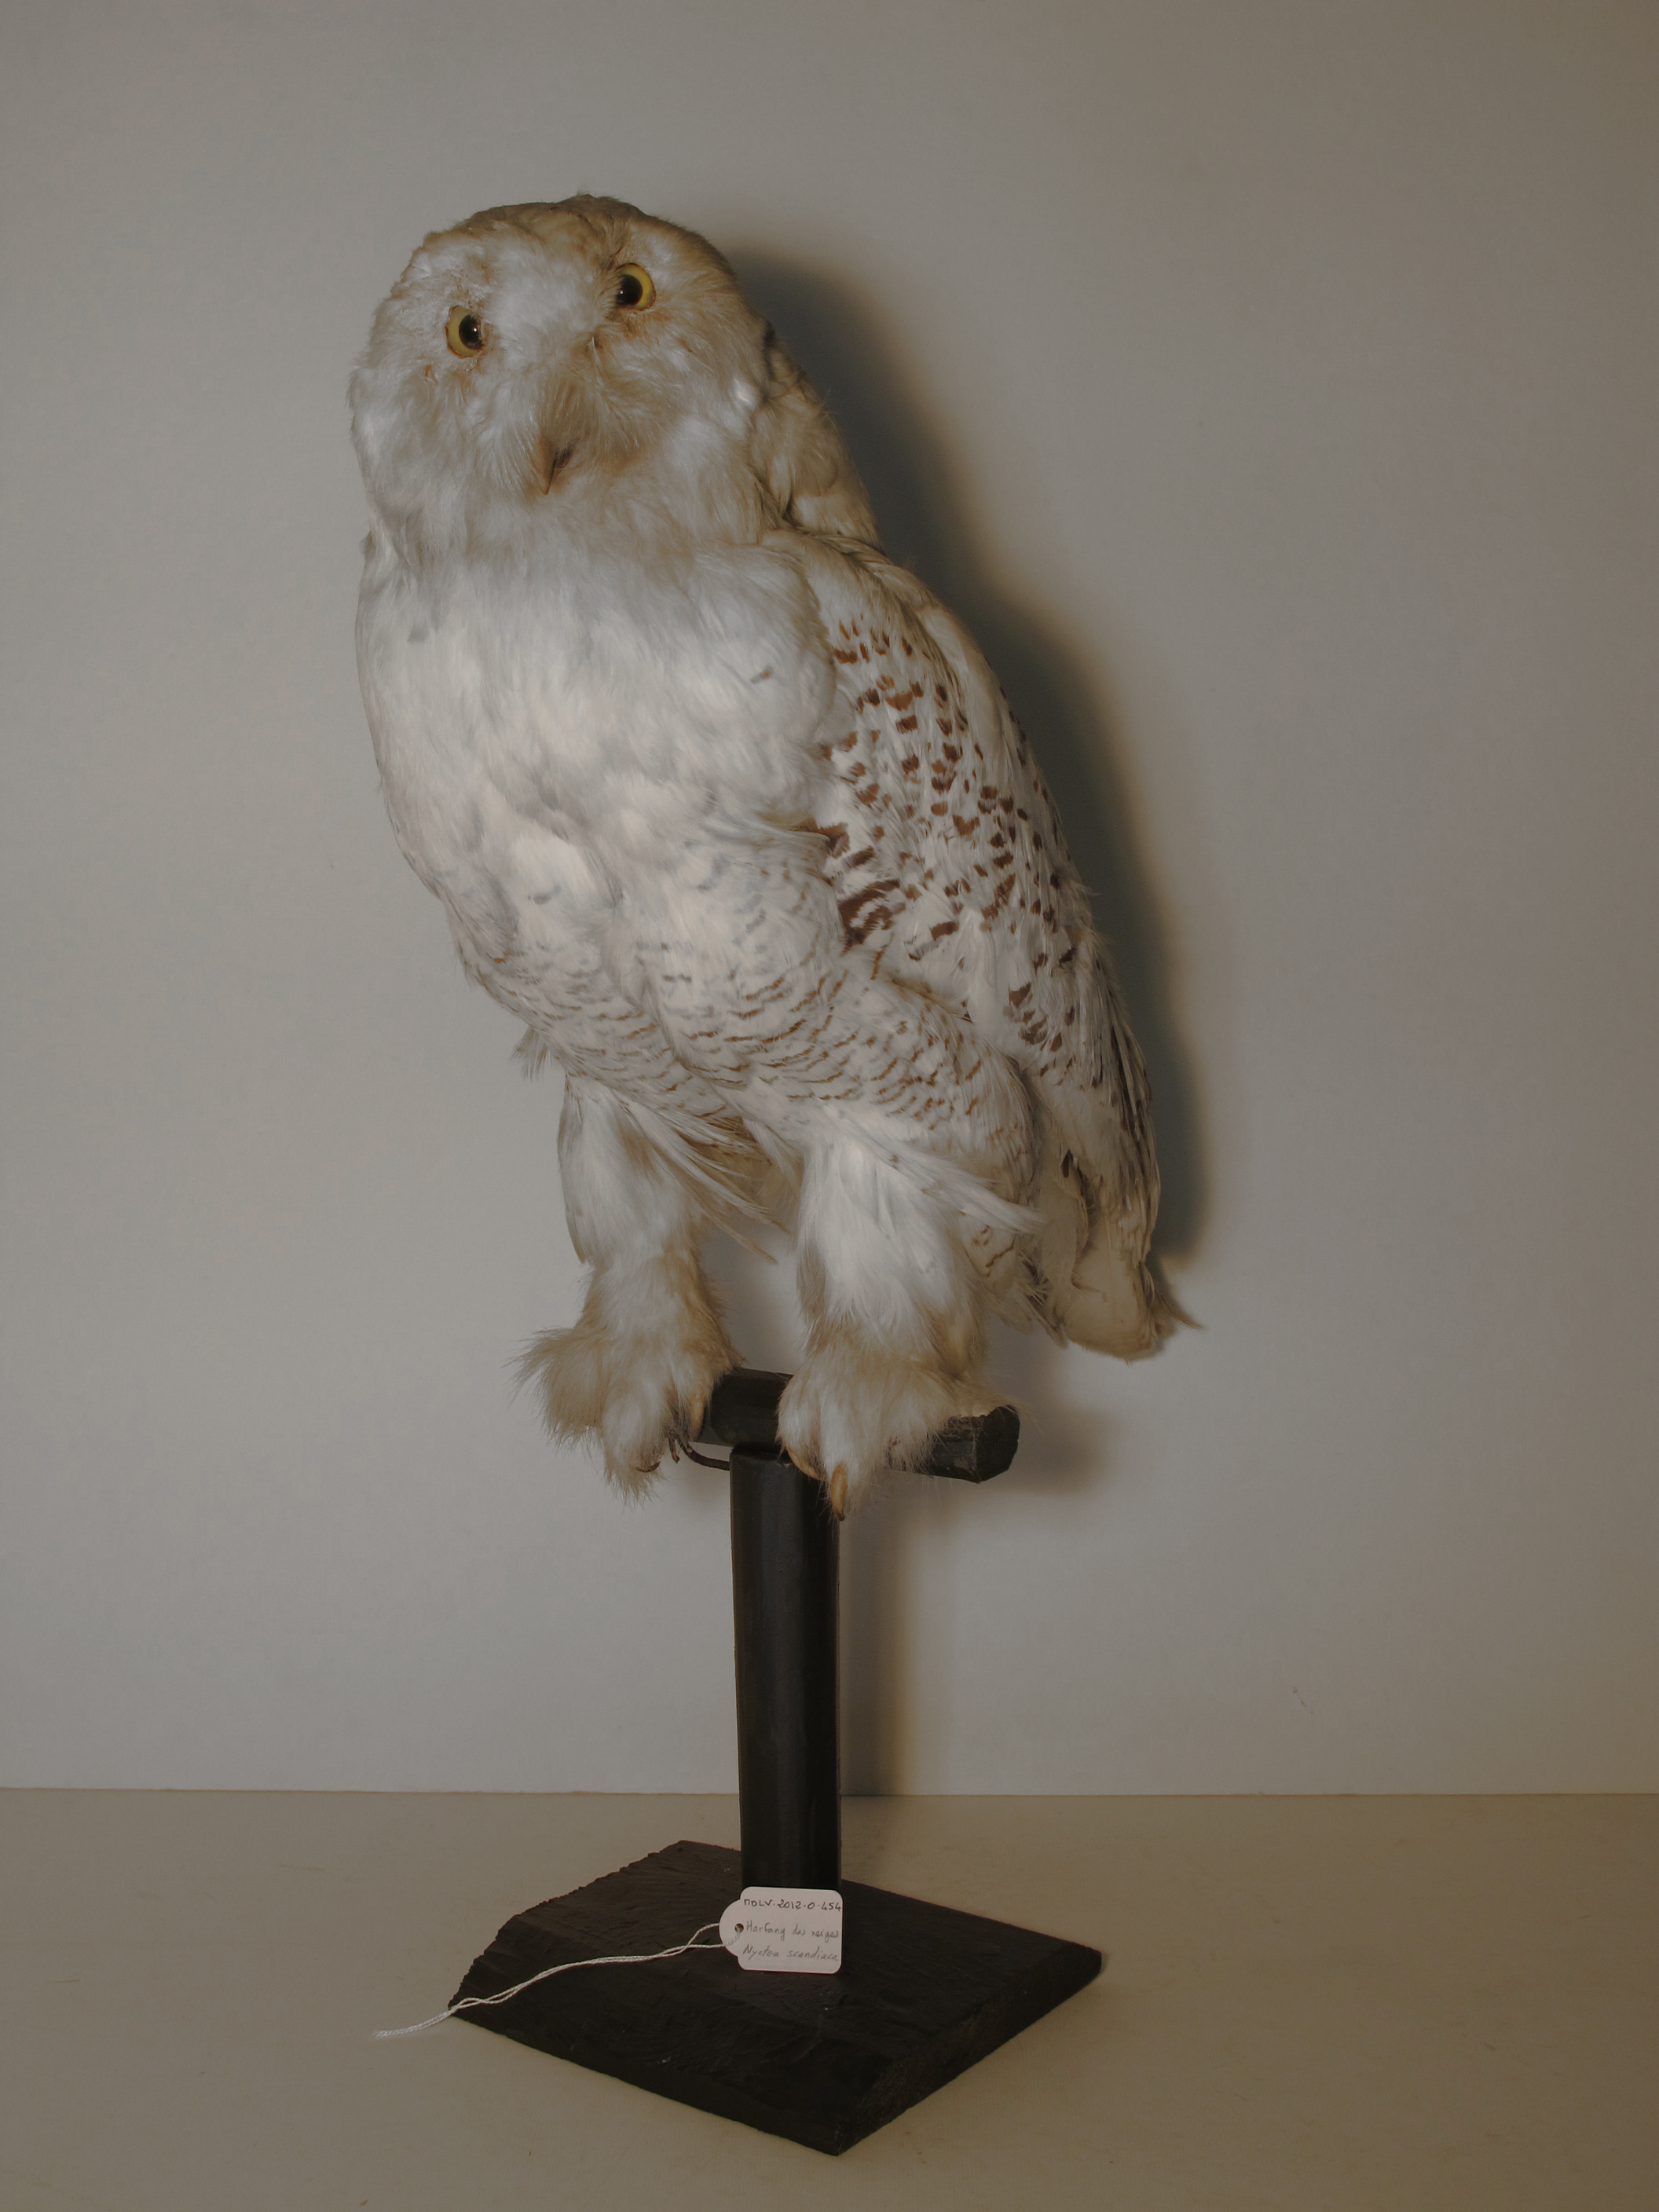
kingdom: Animalia
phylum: Chordata
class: Aves
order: Strigiformes
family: Strigidae
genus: Bubo
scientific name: Bubo scandiacus
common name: Snowy Owl
